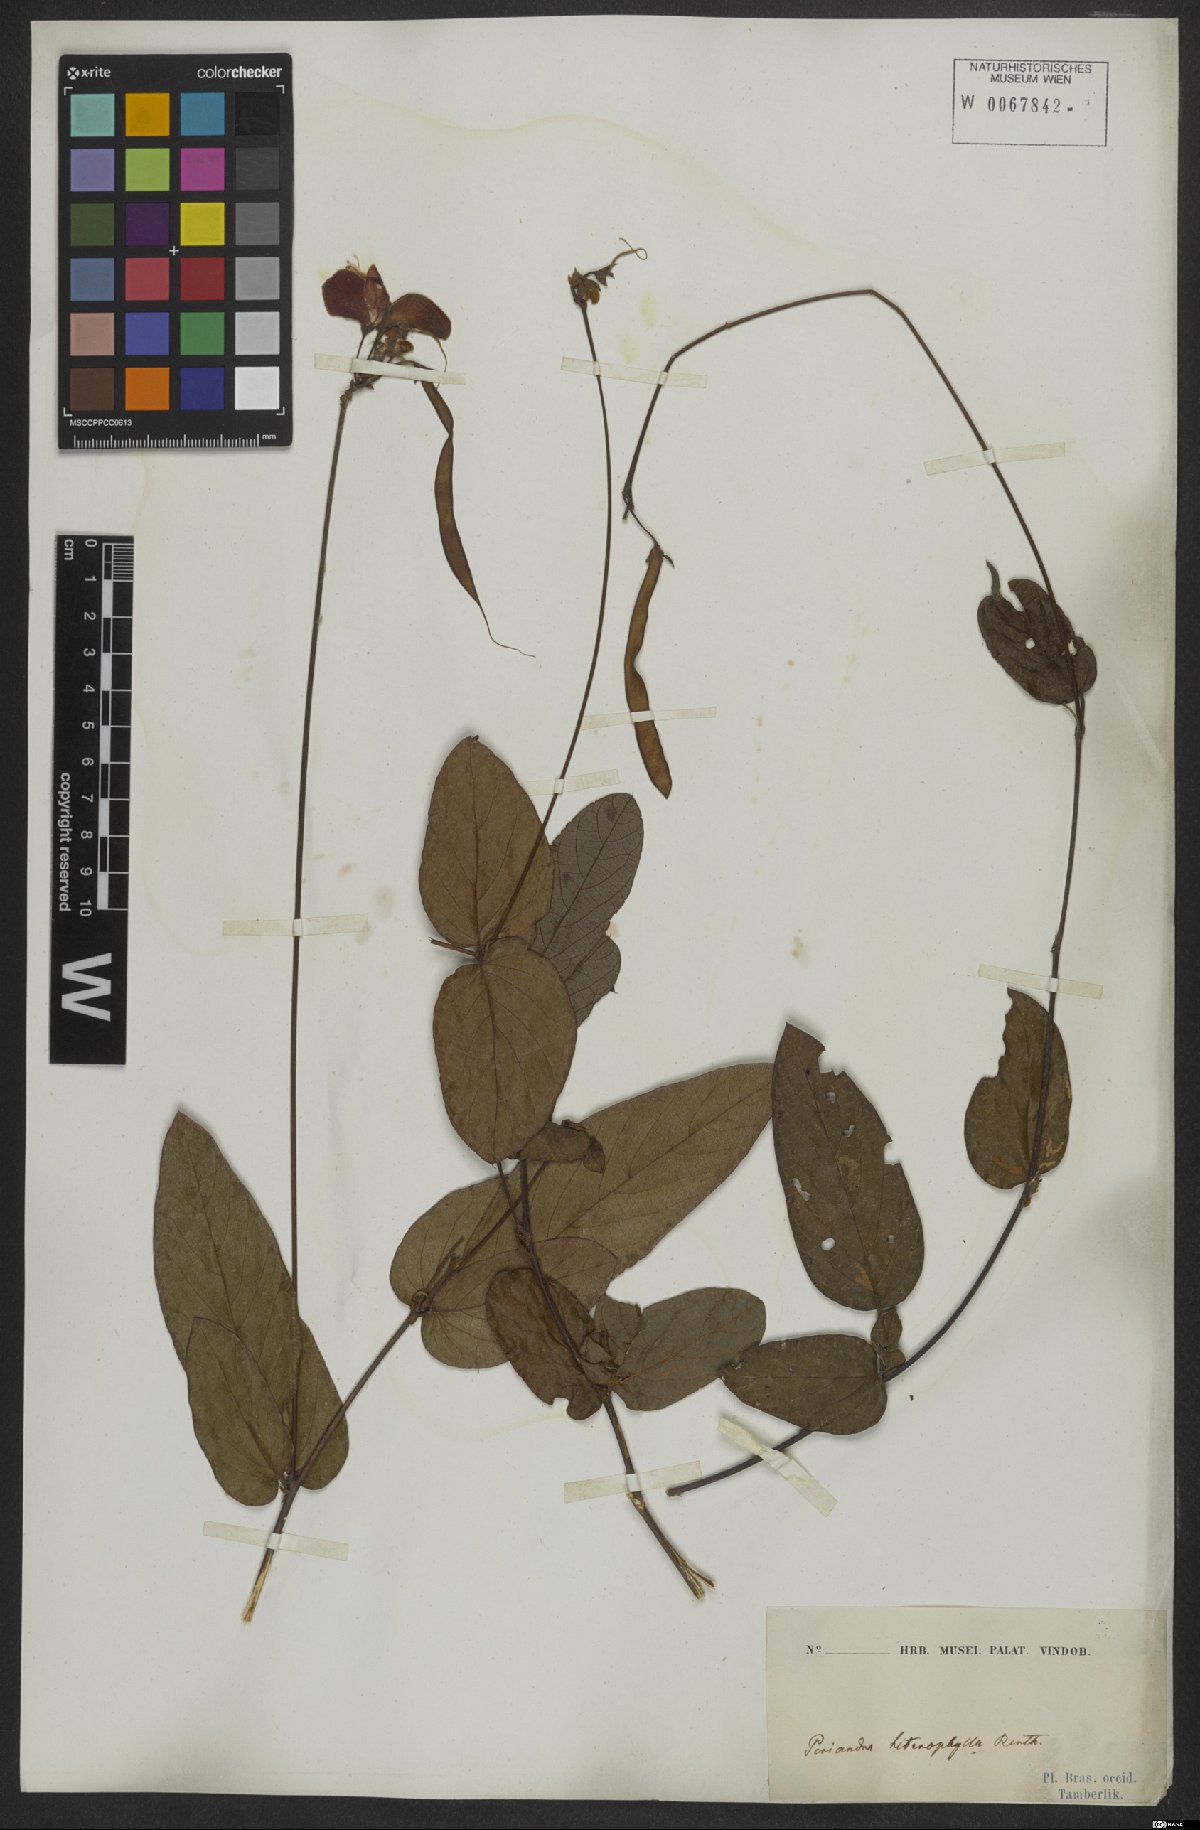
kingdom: Plantae
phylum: Tracheophyta
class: Magnoliopsida
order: Fabales
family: Fabaceae
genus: Periandra
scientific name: Periandra heterophylla
